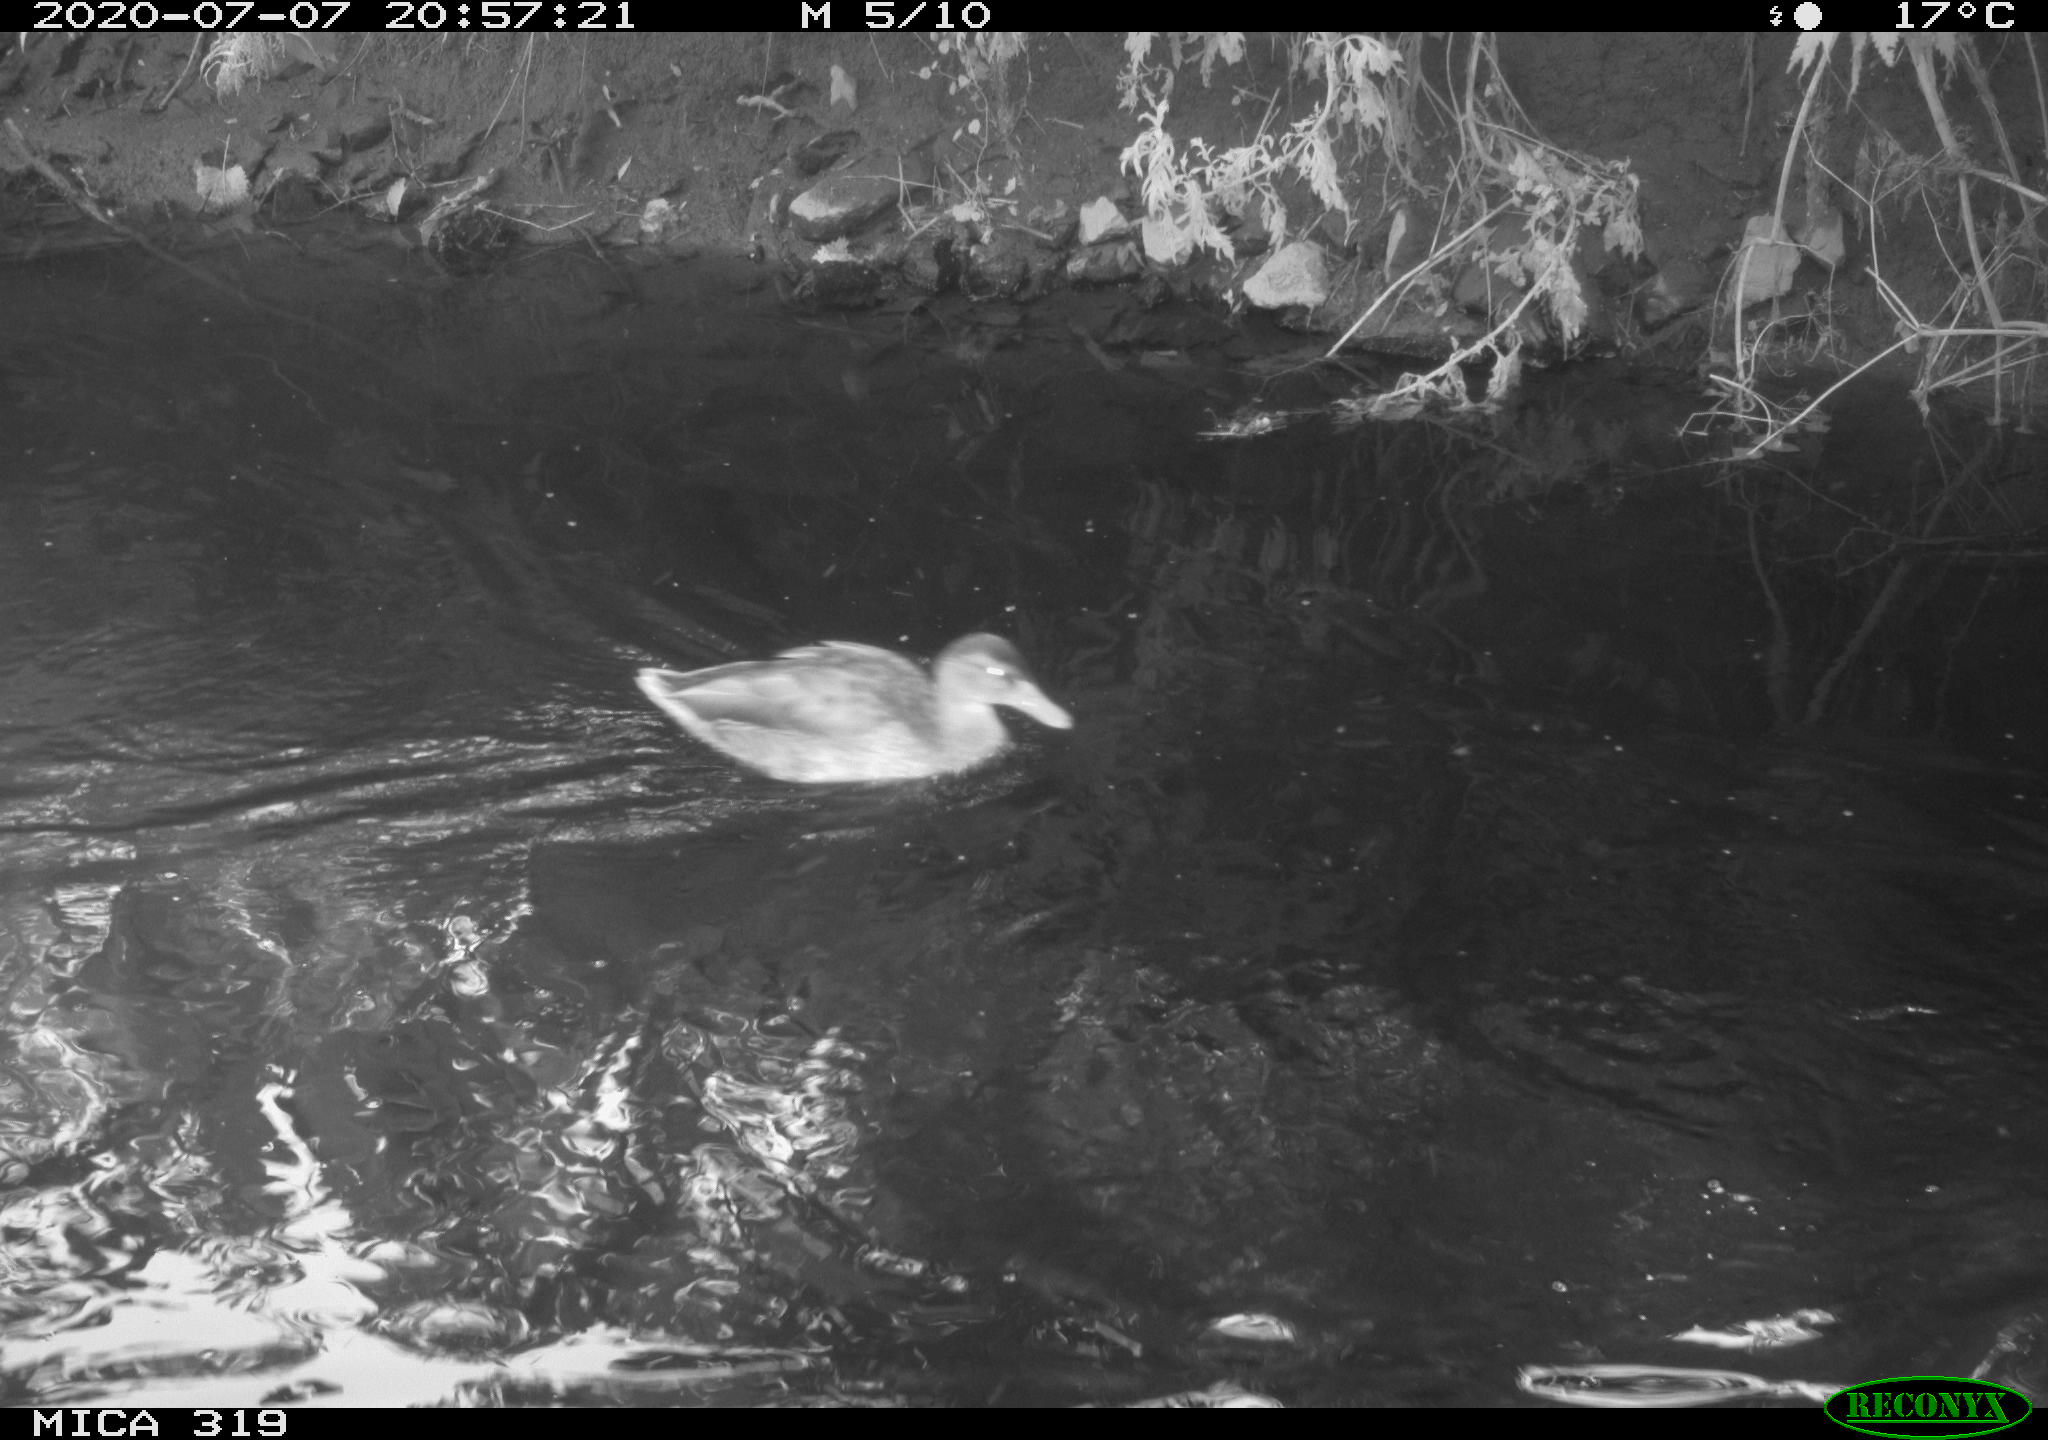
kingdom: Animalia
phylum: Chordata
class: Aves
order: Anseriformes
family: Anatidae
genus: Anas
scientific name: Anas platyrhynchos
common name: Mallard
